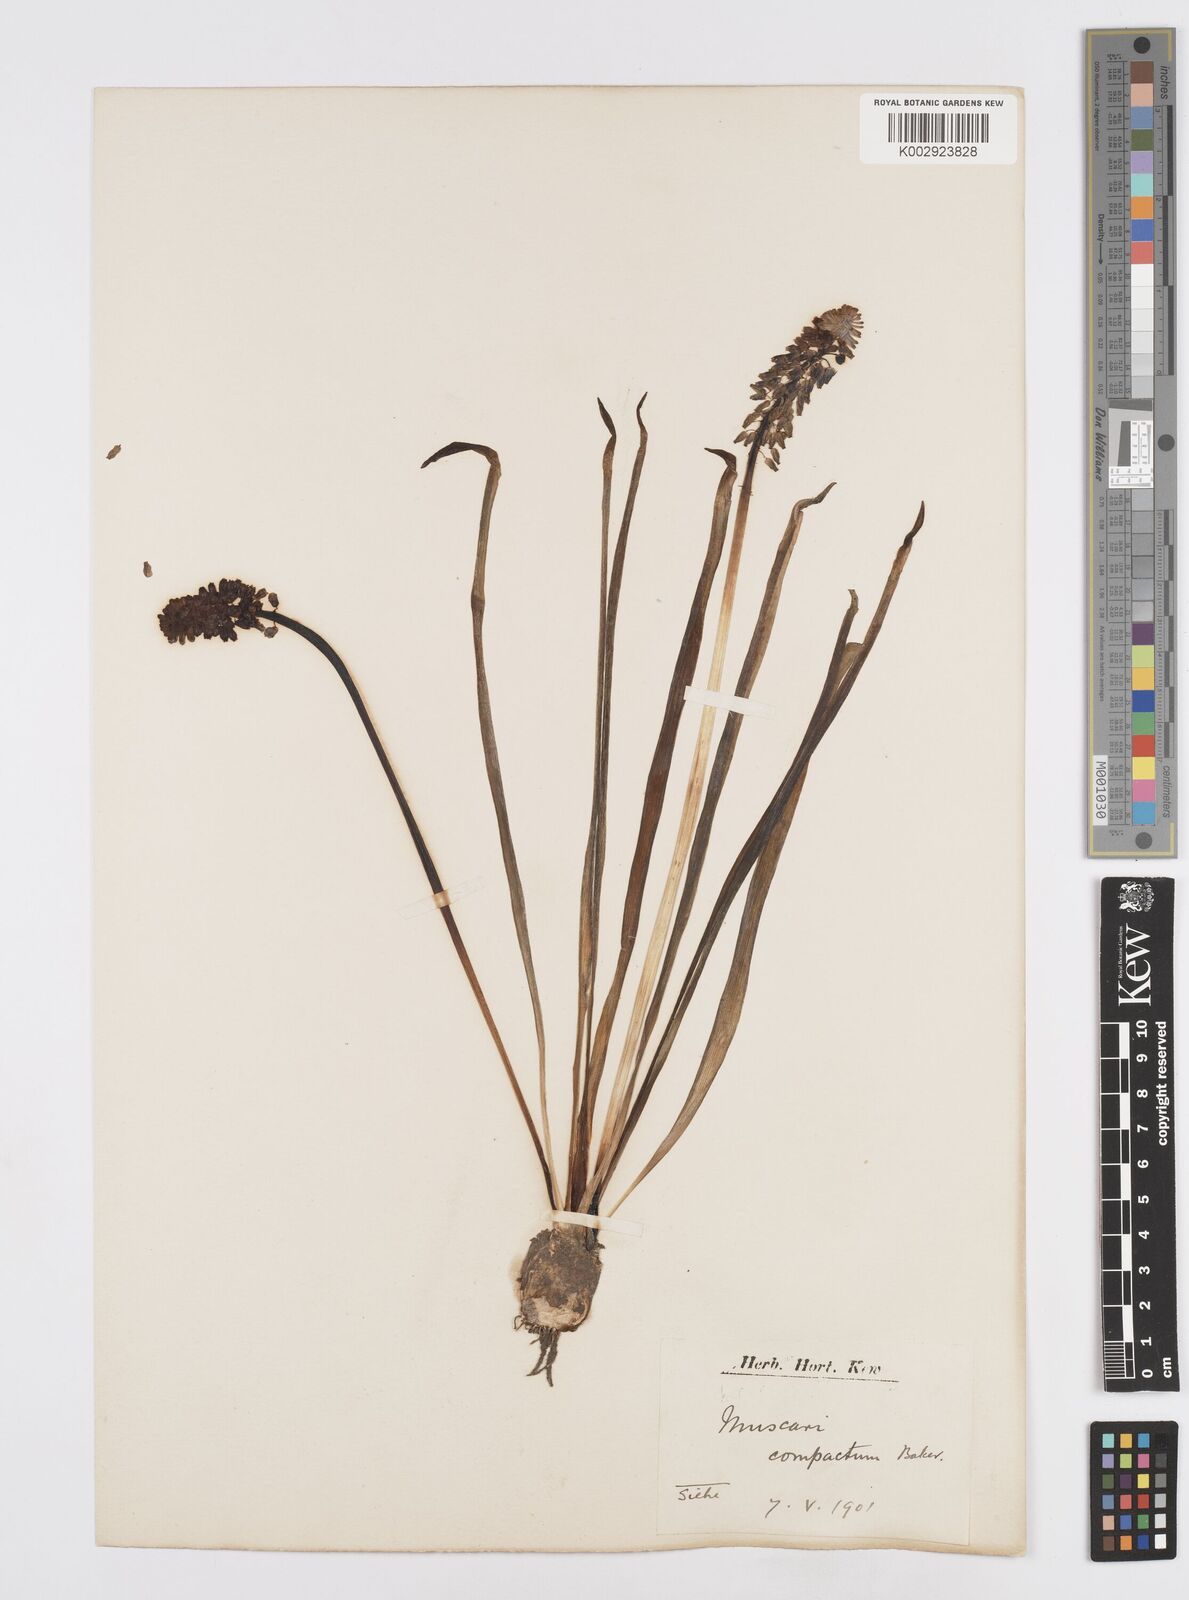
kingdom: Plantae
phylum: Tracheophyta
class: Liliopsida
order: Asparagales
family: Asparagaceae
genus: Muscari
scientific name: Muscari neglectum
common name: Grape-hyacinth
